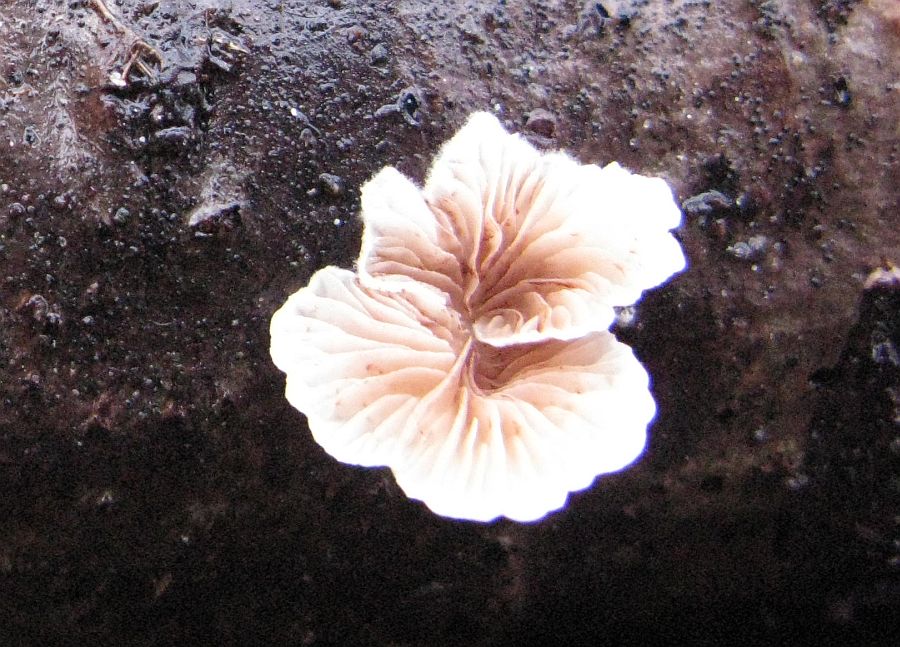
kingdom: Fungi
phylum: Basidiomycota
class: Agaricomycetes
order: Agaricales
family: Crepidotaceae
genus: Crepidotus
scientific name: Crepidotus variabilis
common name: forskelligformet muslingesvamp
